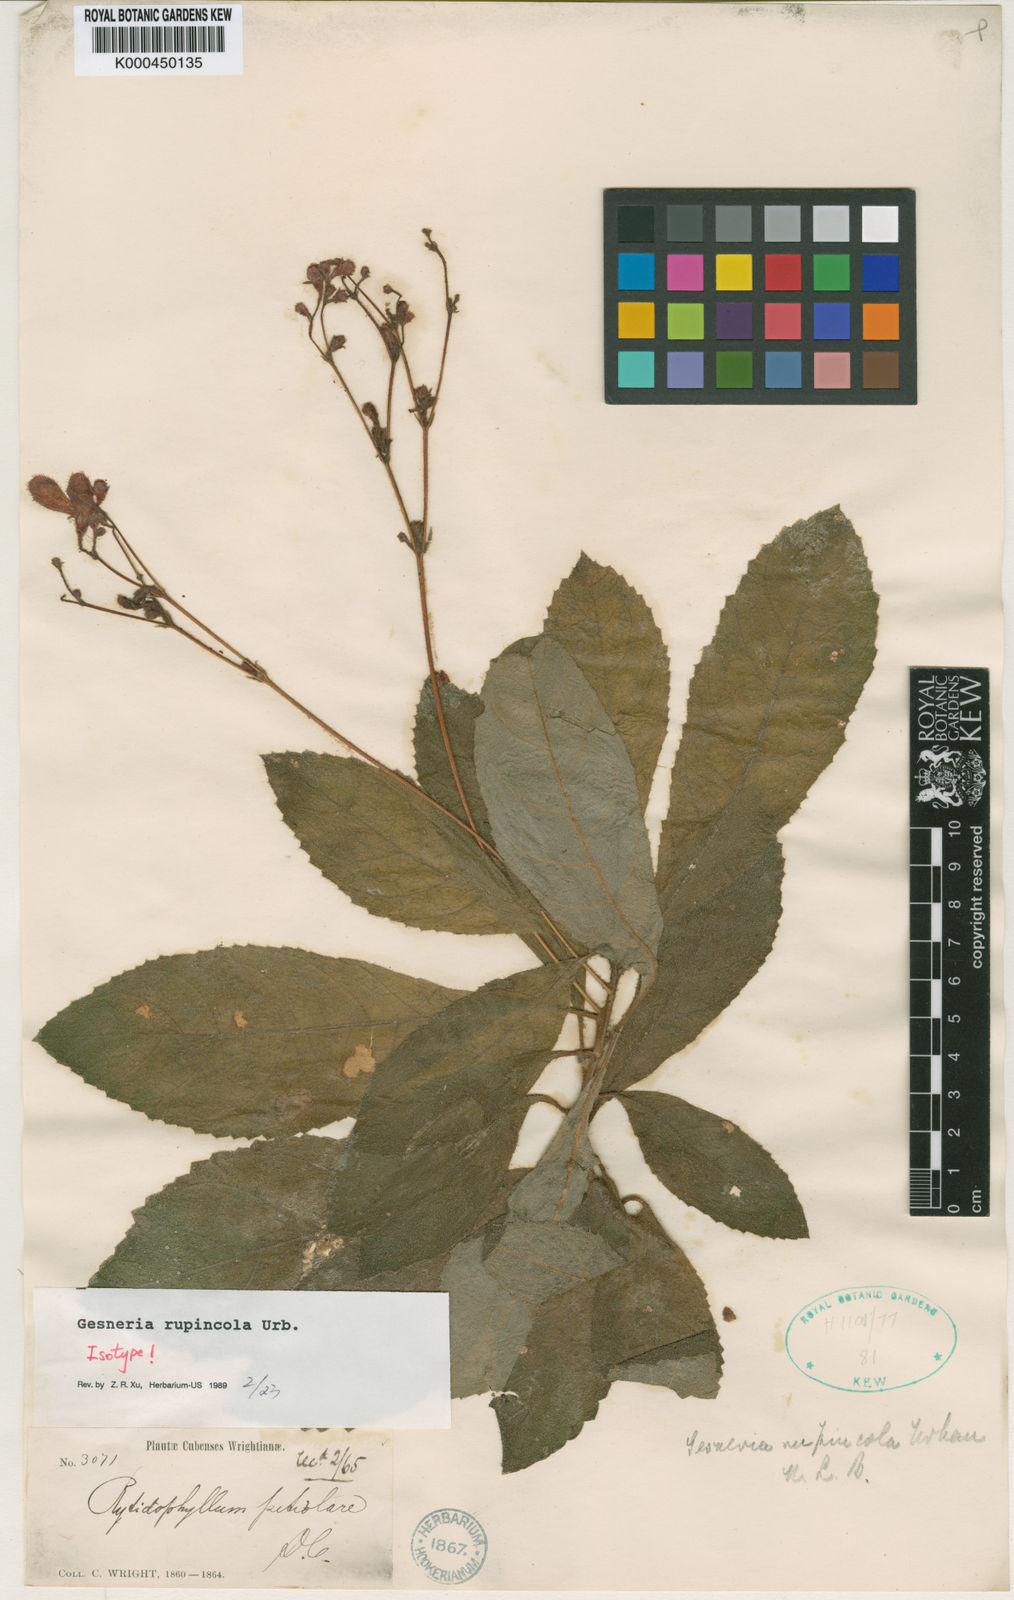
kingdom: Plantae
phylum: Tracheophyta
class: Magnoliopsida
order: Lamiales
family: Gesneriaceae
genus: Rhytidophyllum
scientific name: Rhytidophyllum rupincola
